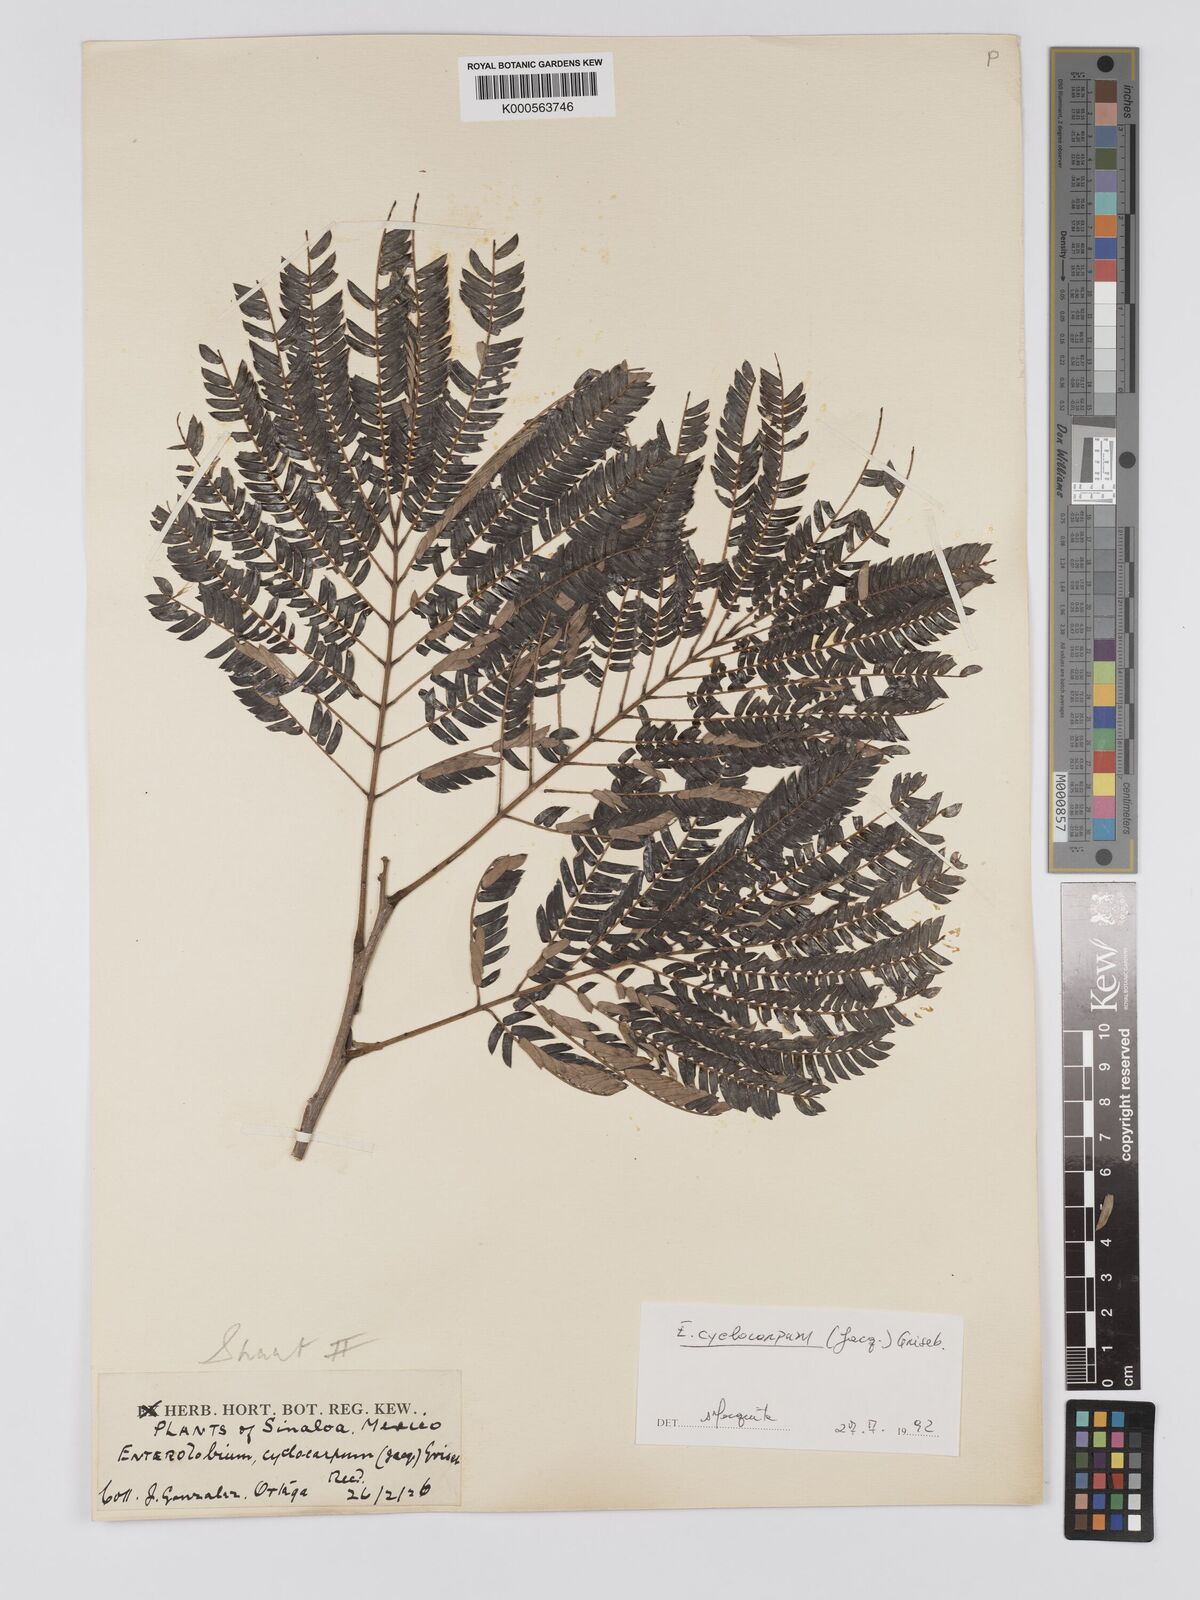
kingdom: Plantae
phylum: Tracheophyta
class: Magnoliopsida
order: Fabales
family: Fabaceae
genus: Enterolobium
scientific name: Enterolobium cyclocarpum
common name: Ear tree
